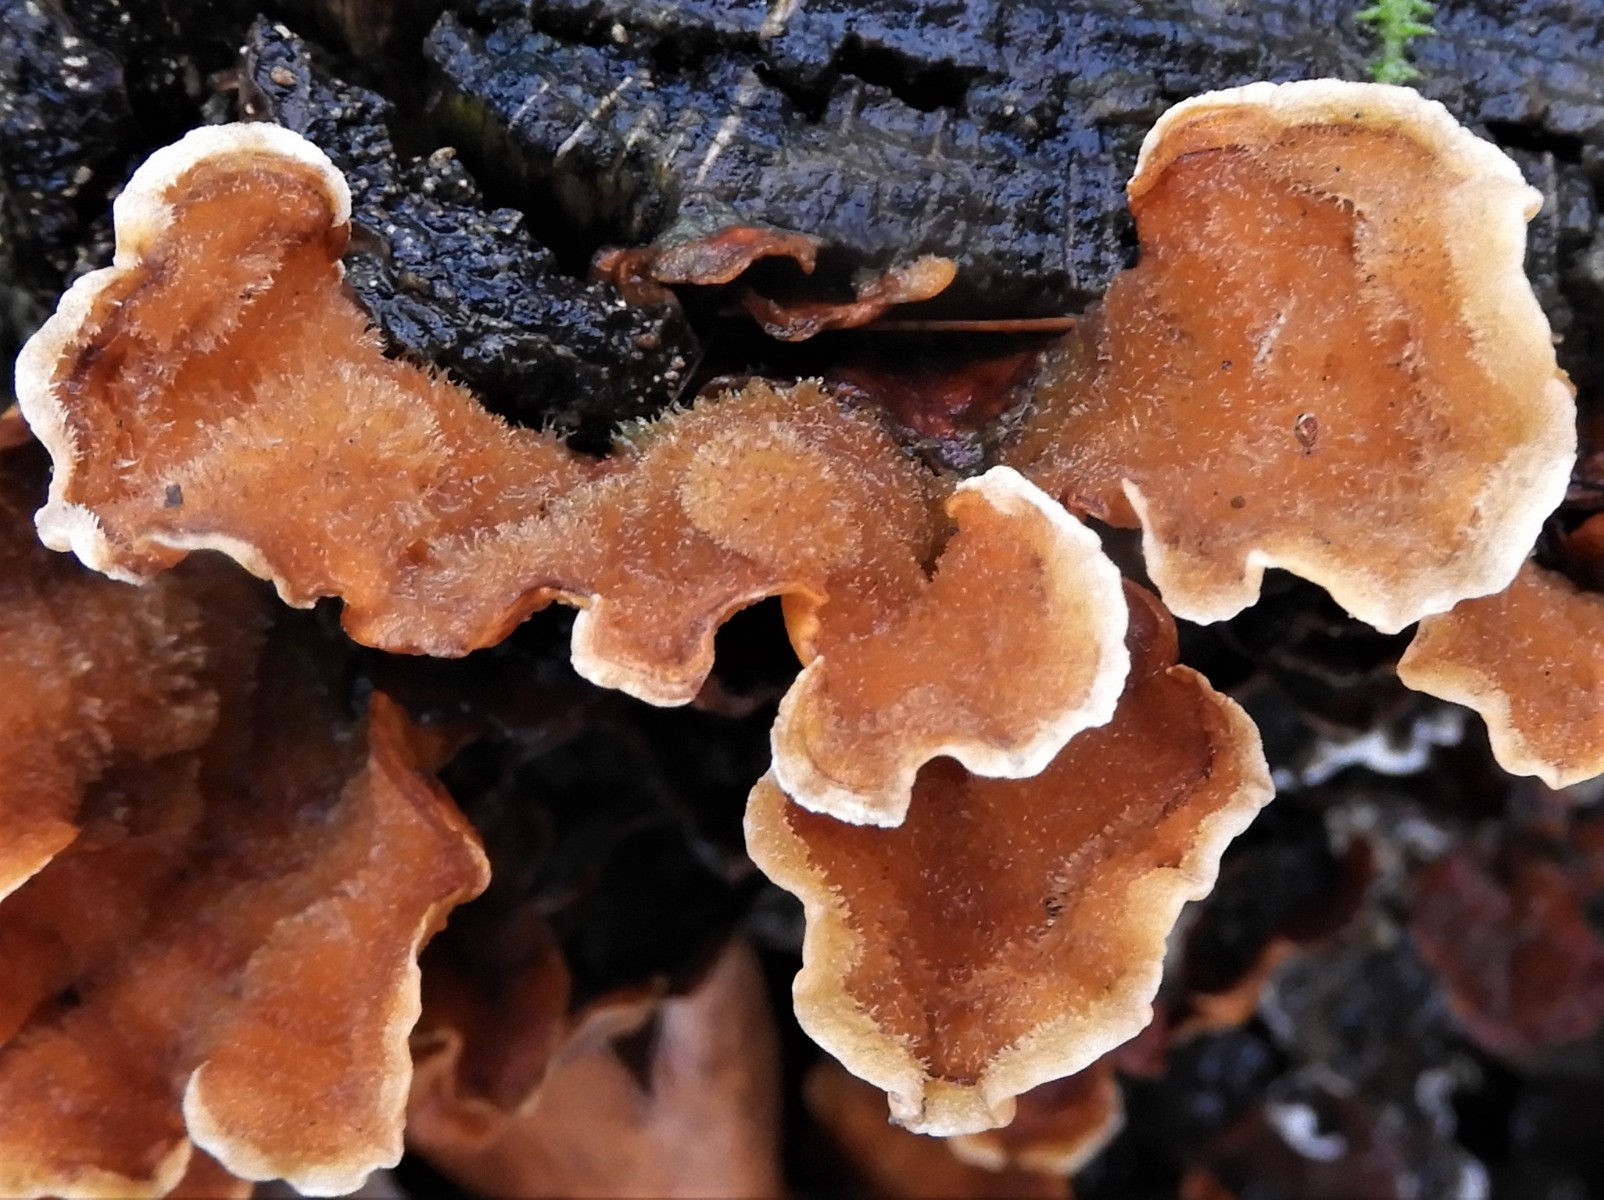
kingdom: Fungi
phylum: Basidiomycota
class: Agaricomycetes
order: Russulales
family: Stereaceae
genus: Stereum
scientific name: Stereum hirsutum
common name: håret lædersvamp
